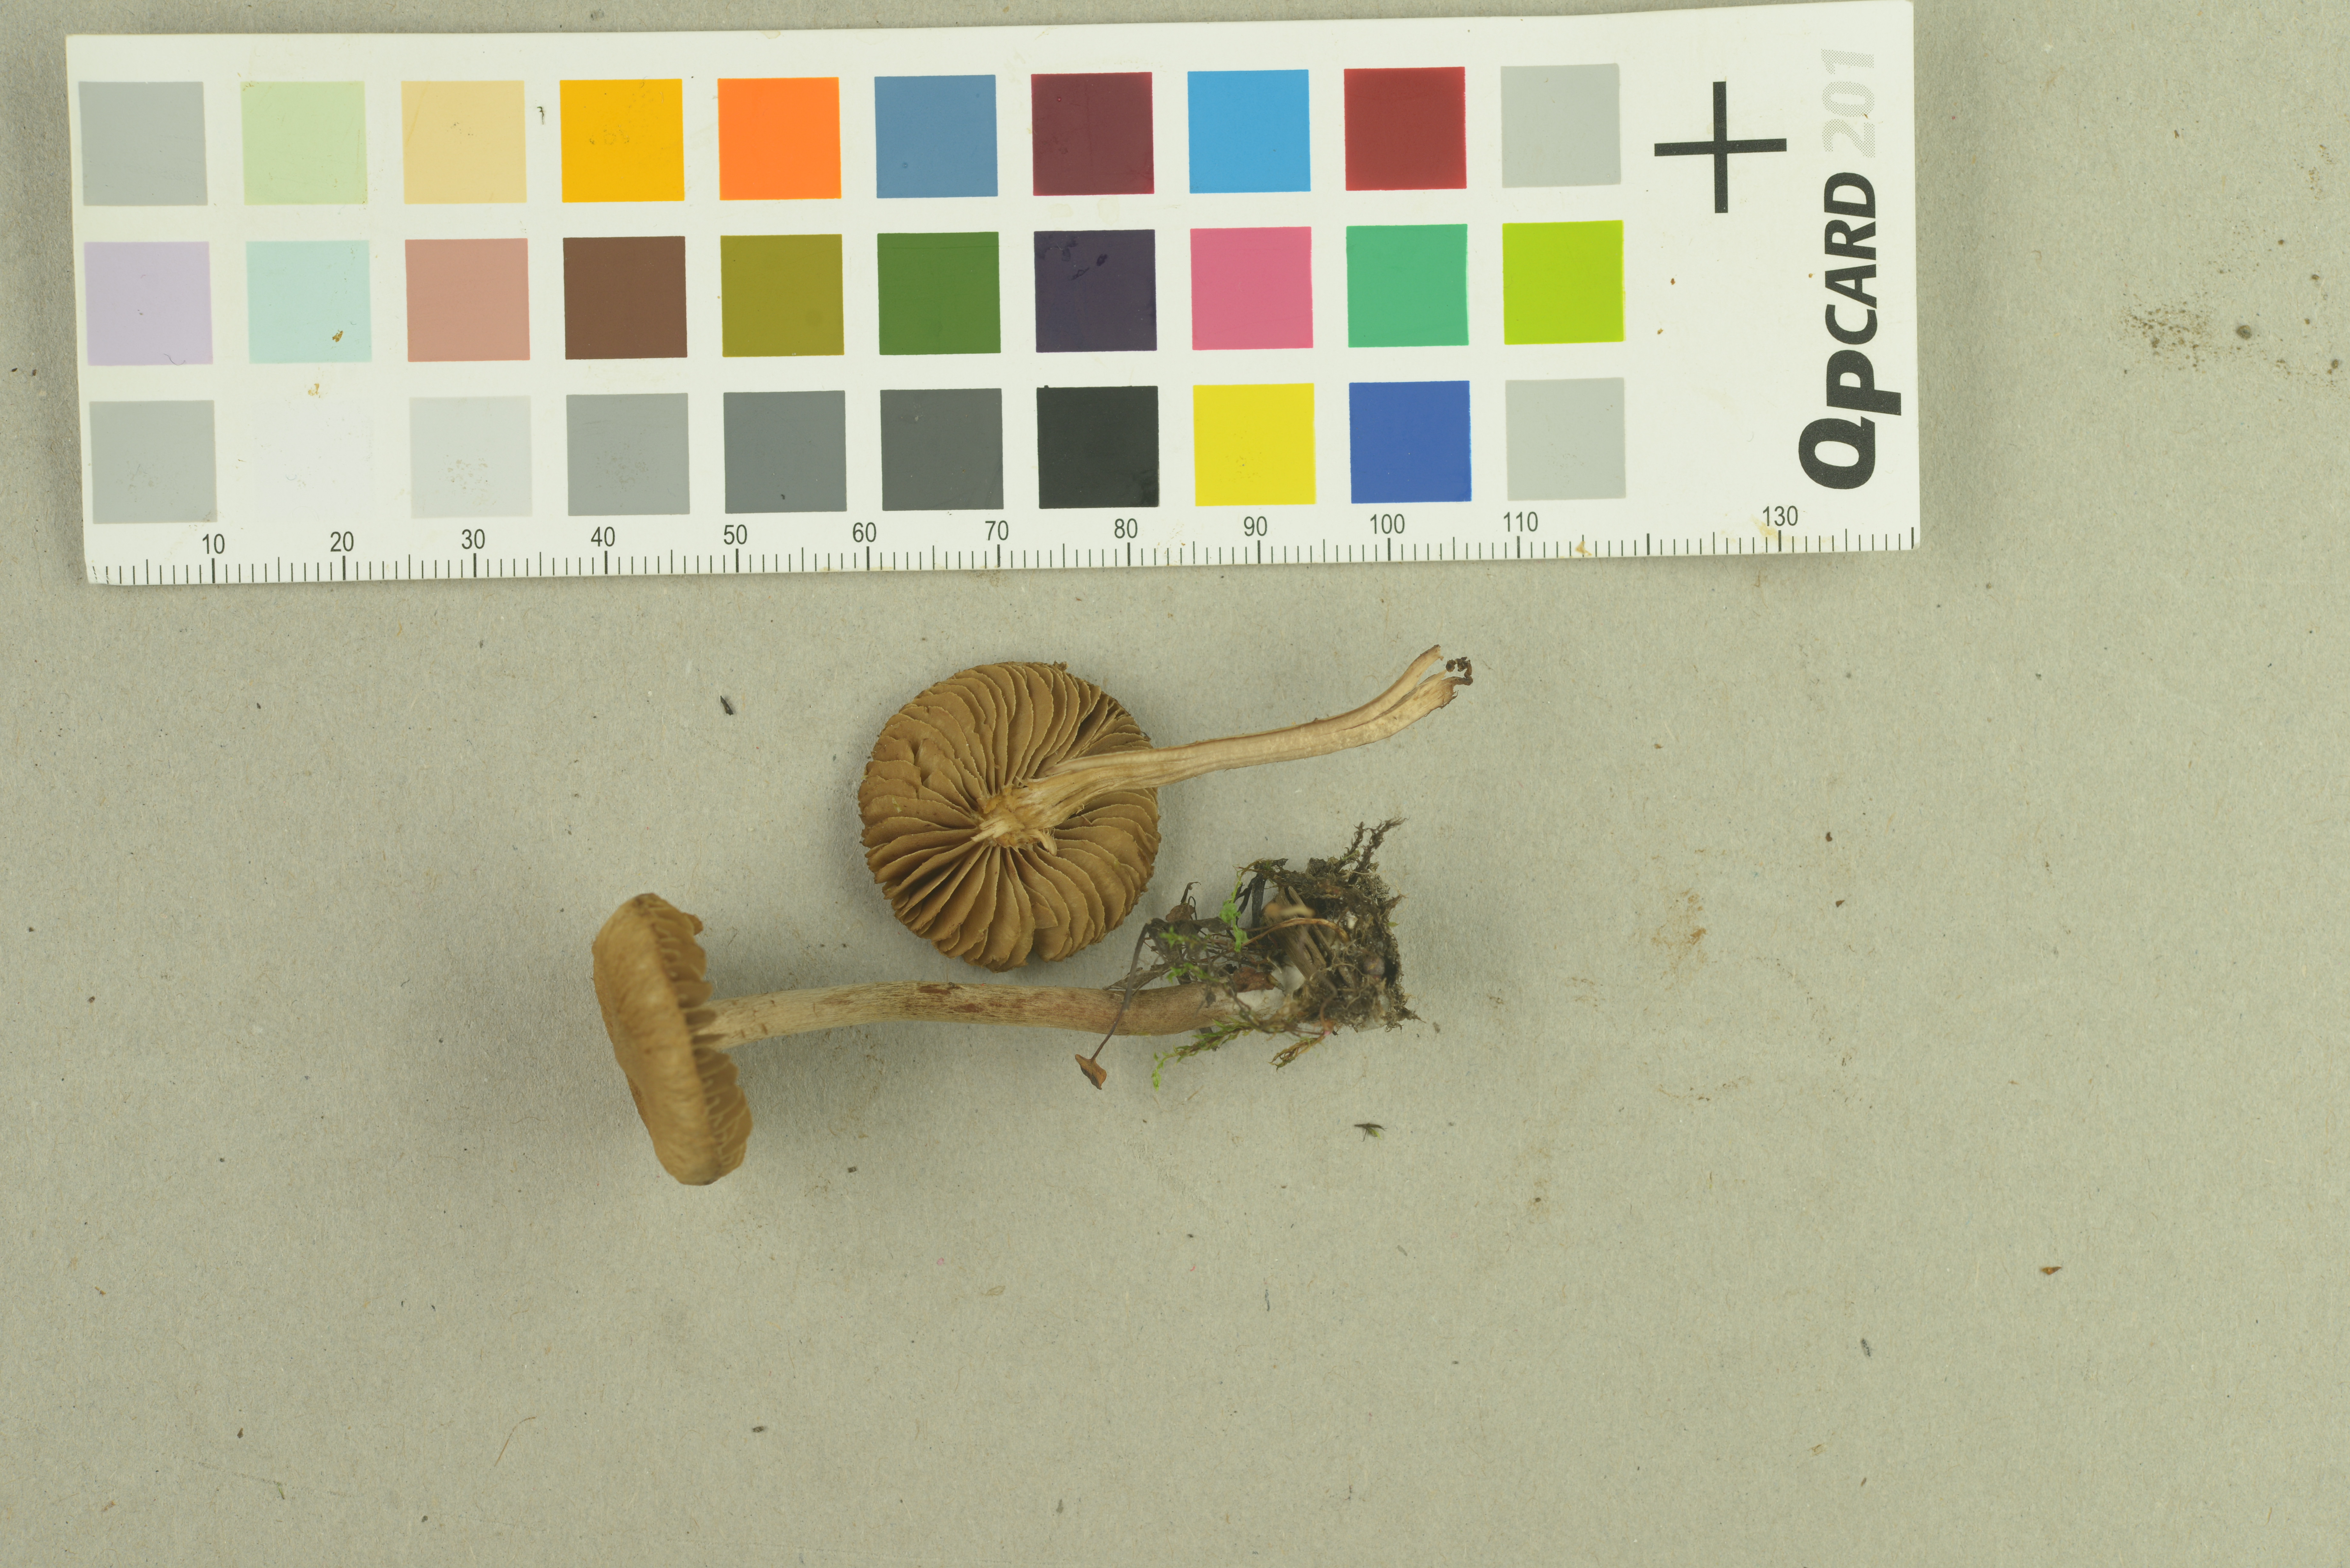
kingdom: Fungi
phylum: Basidiomycota
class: Agaricomycetes
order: Agaricales
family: Inocybaceae
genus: Inocybe
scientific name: Inocybe helobia
